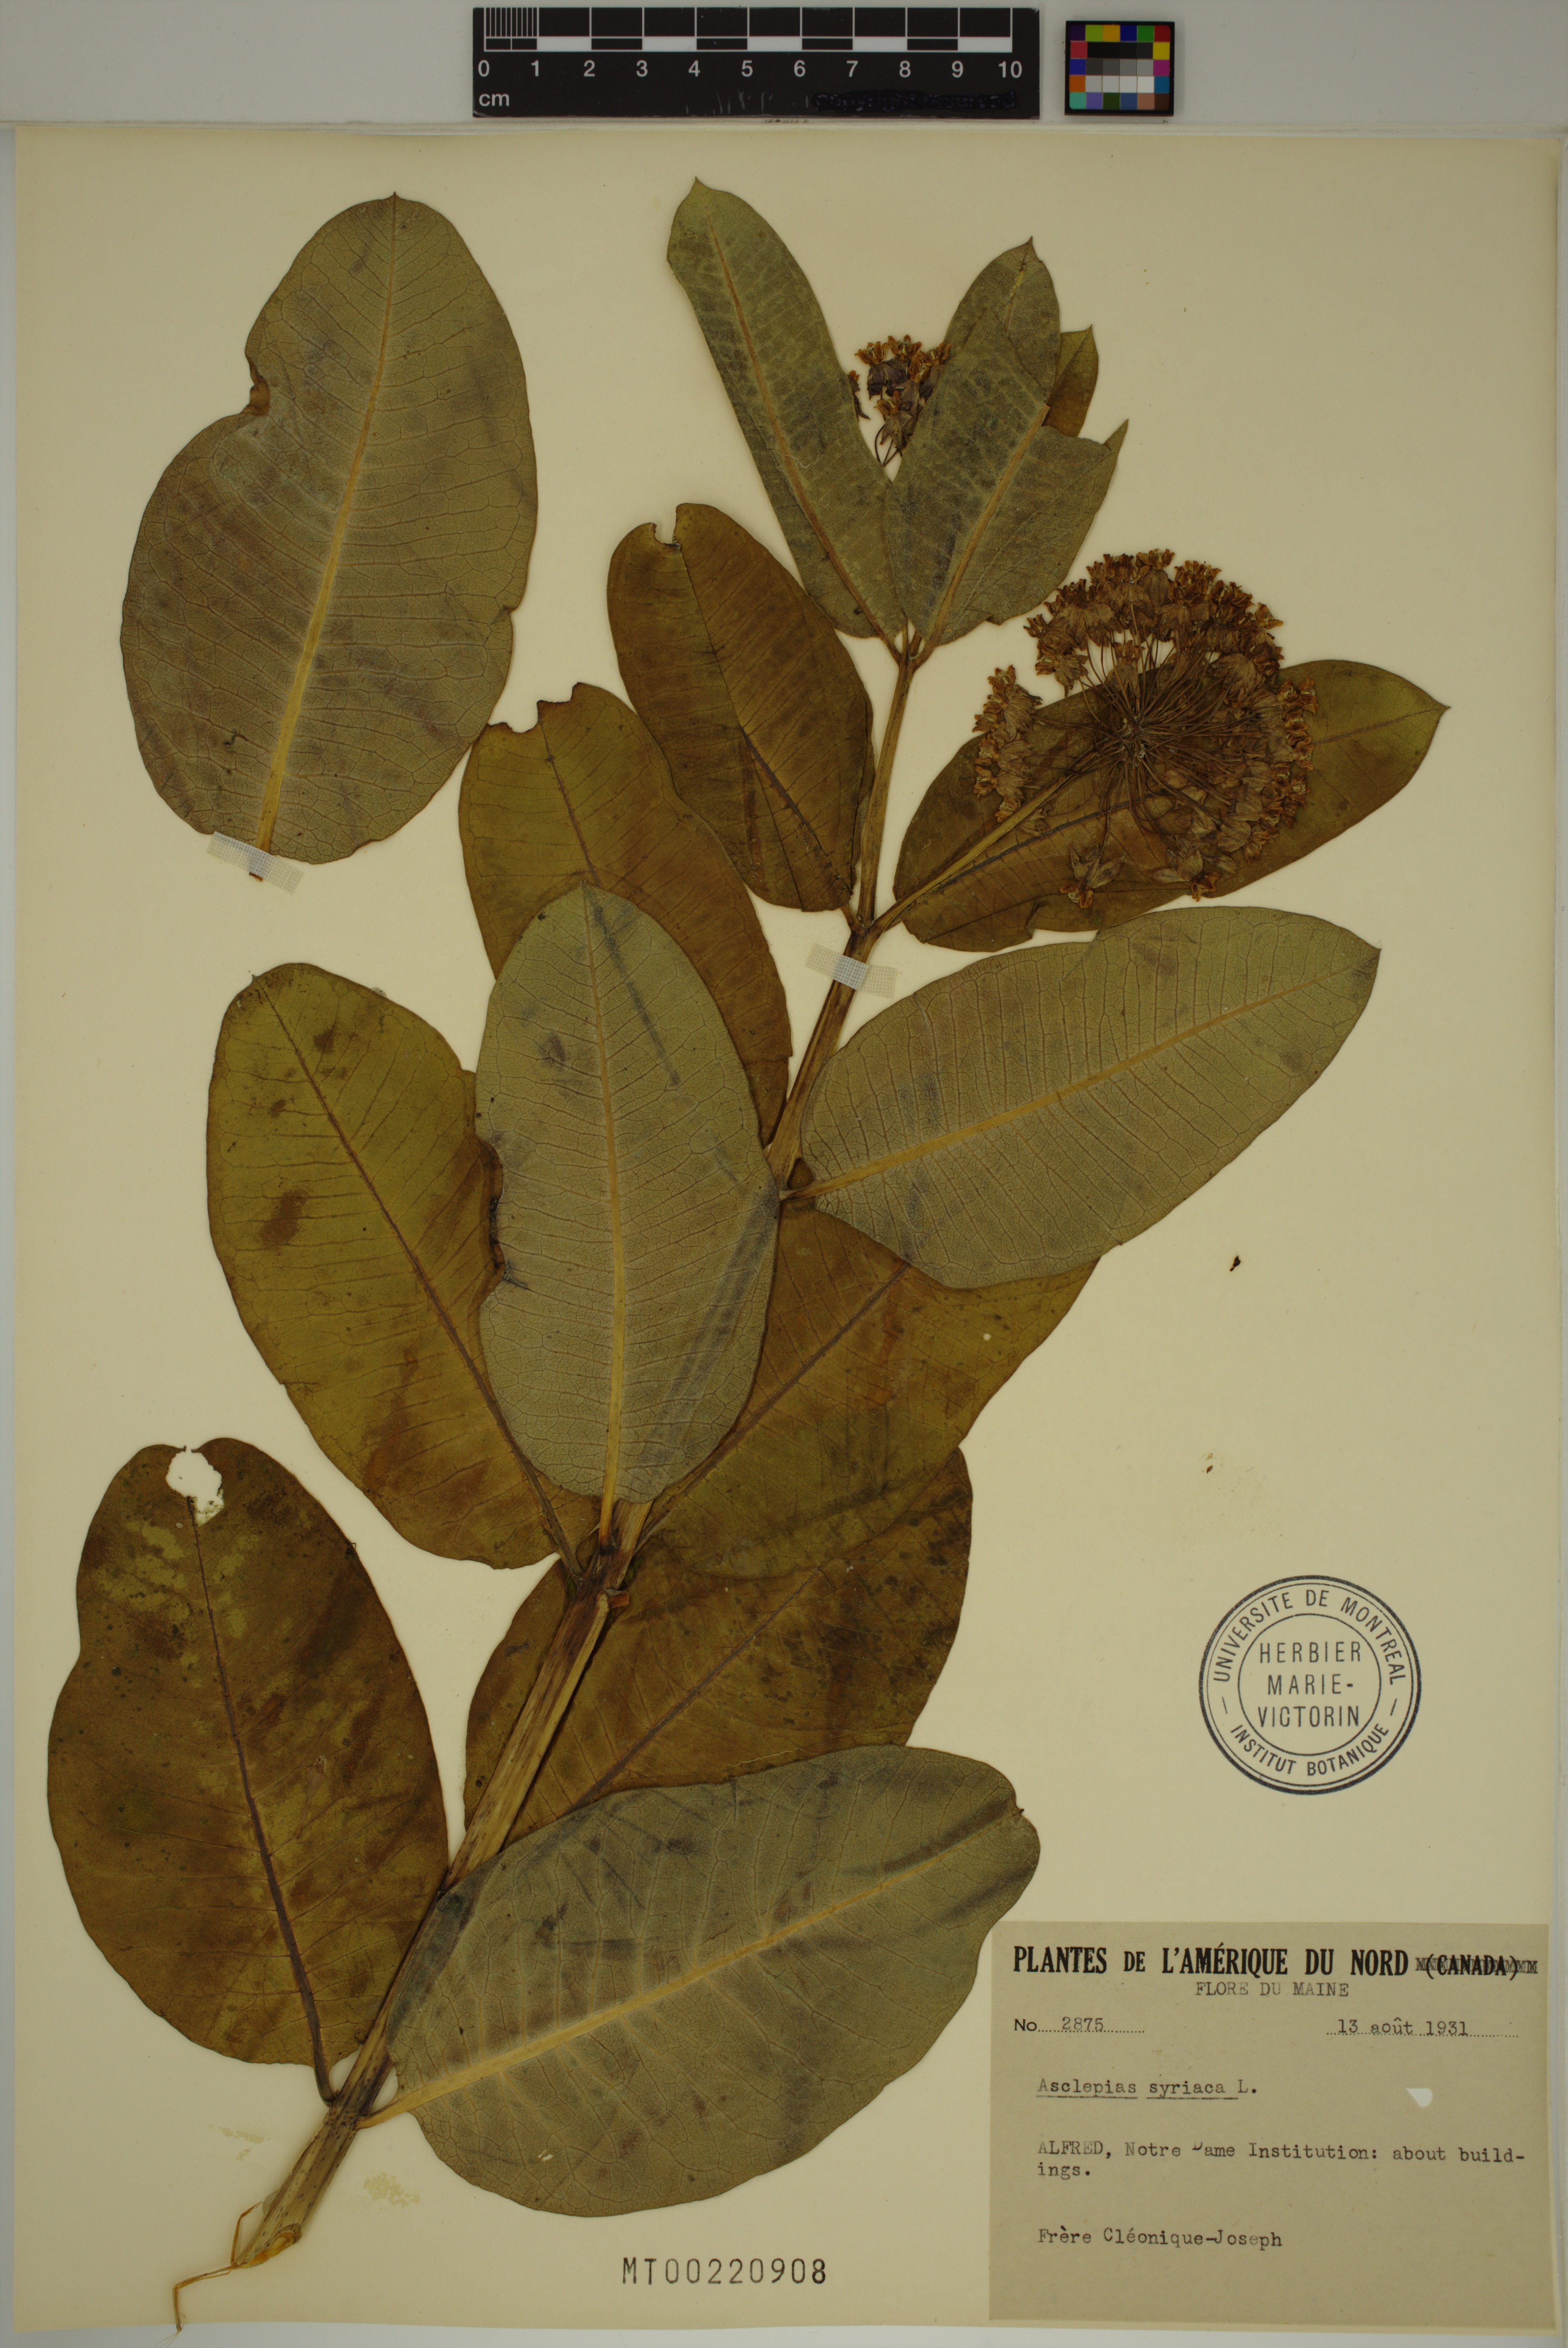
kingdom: Plantae
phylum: Tracheophyta
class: Magnoliopsida
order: Gentianales
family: Apocynaceae
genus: Asclepias
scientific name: Asclepias syriaca
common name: Common milkweed
